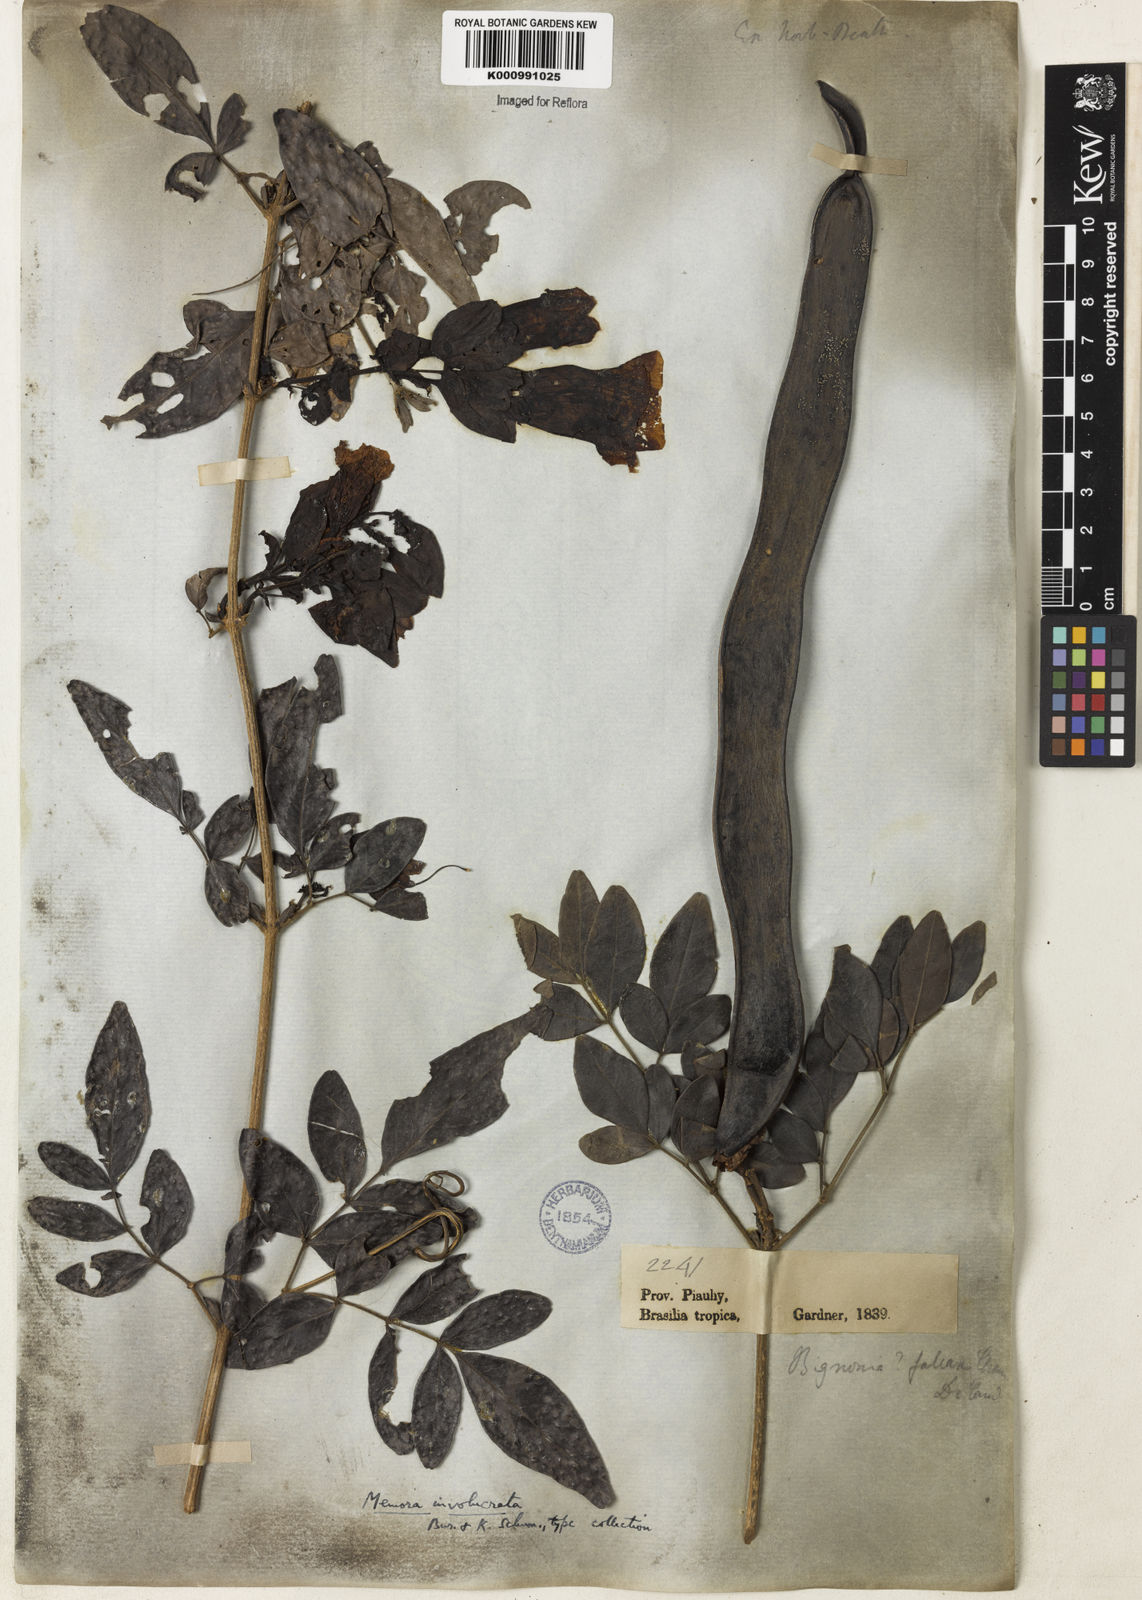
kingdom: Plantae
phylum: Tracheophyta
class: Magnoliopsida
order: Lamiales
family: Bignoniaceae
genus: Adenocalymma
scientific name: Adenocalymma involucratum
